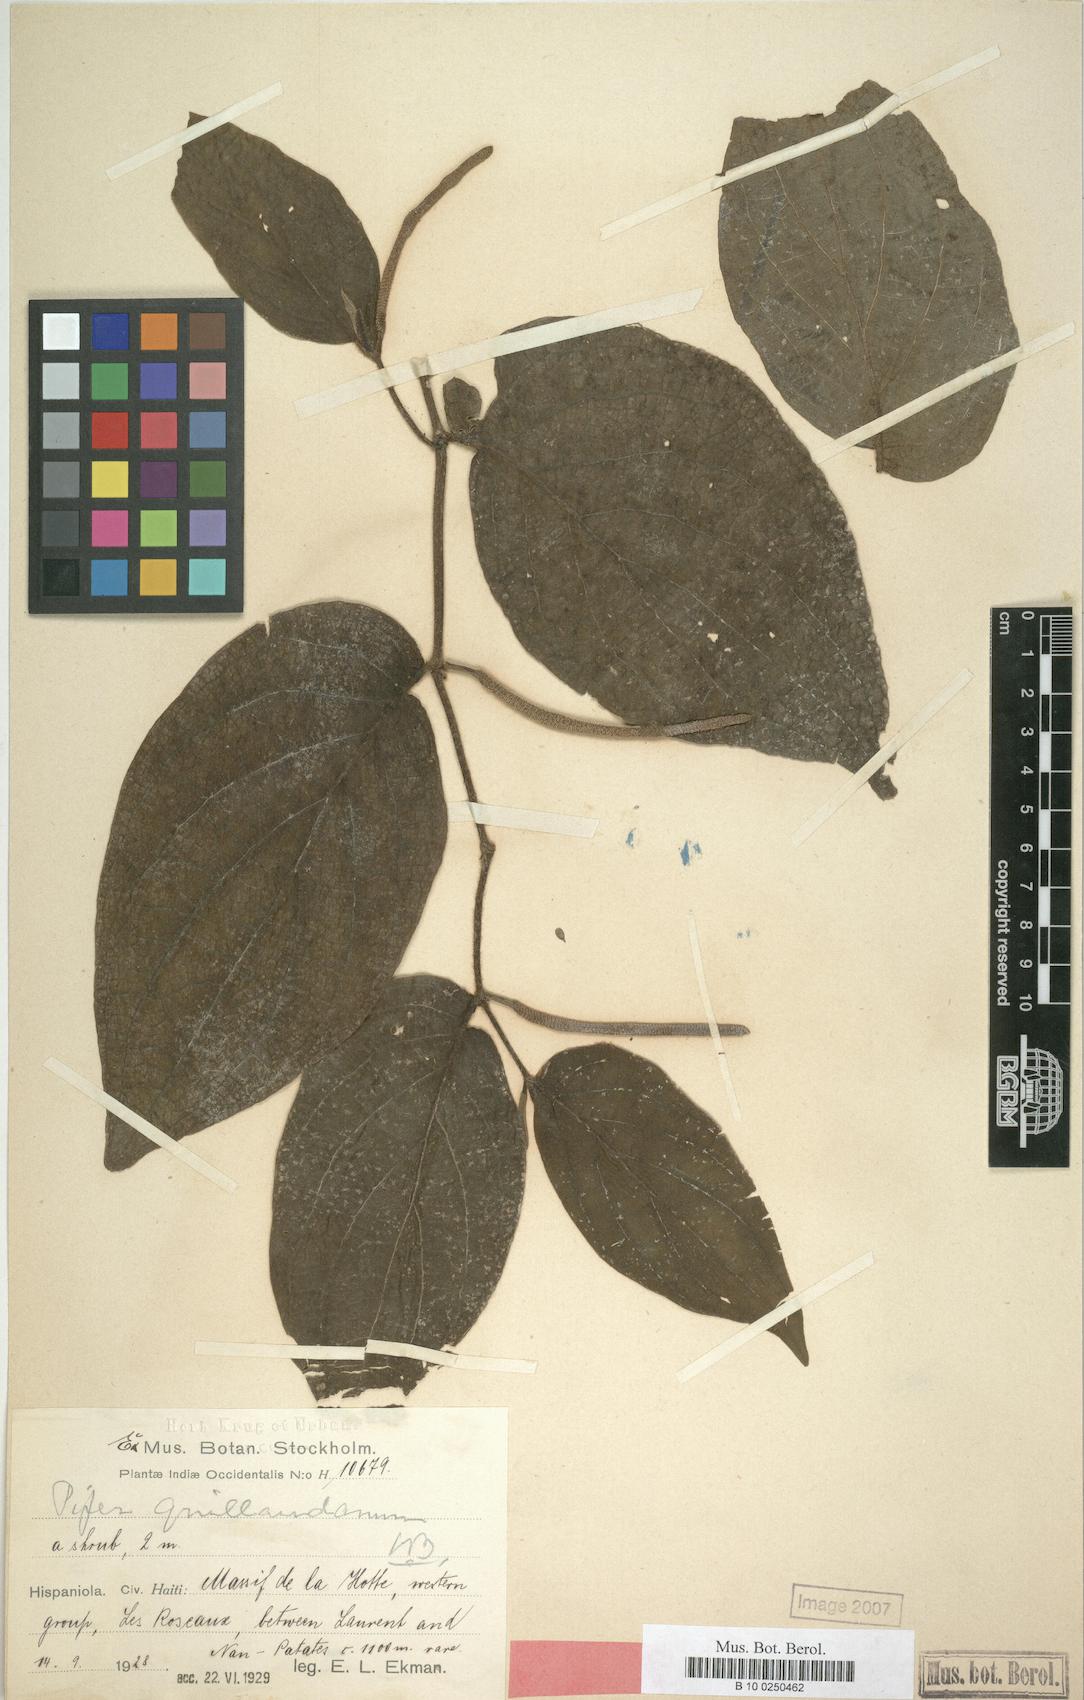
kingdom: Plantae
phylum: Tracheophyta
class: Magnoliopsida
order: Piperales
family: Piperaceae
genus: Piper
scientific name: Piper vanderveldeanum
